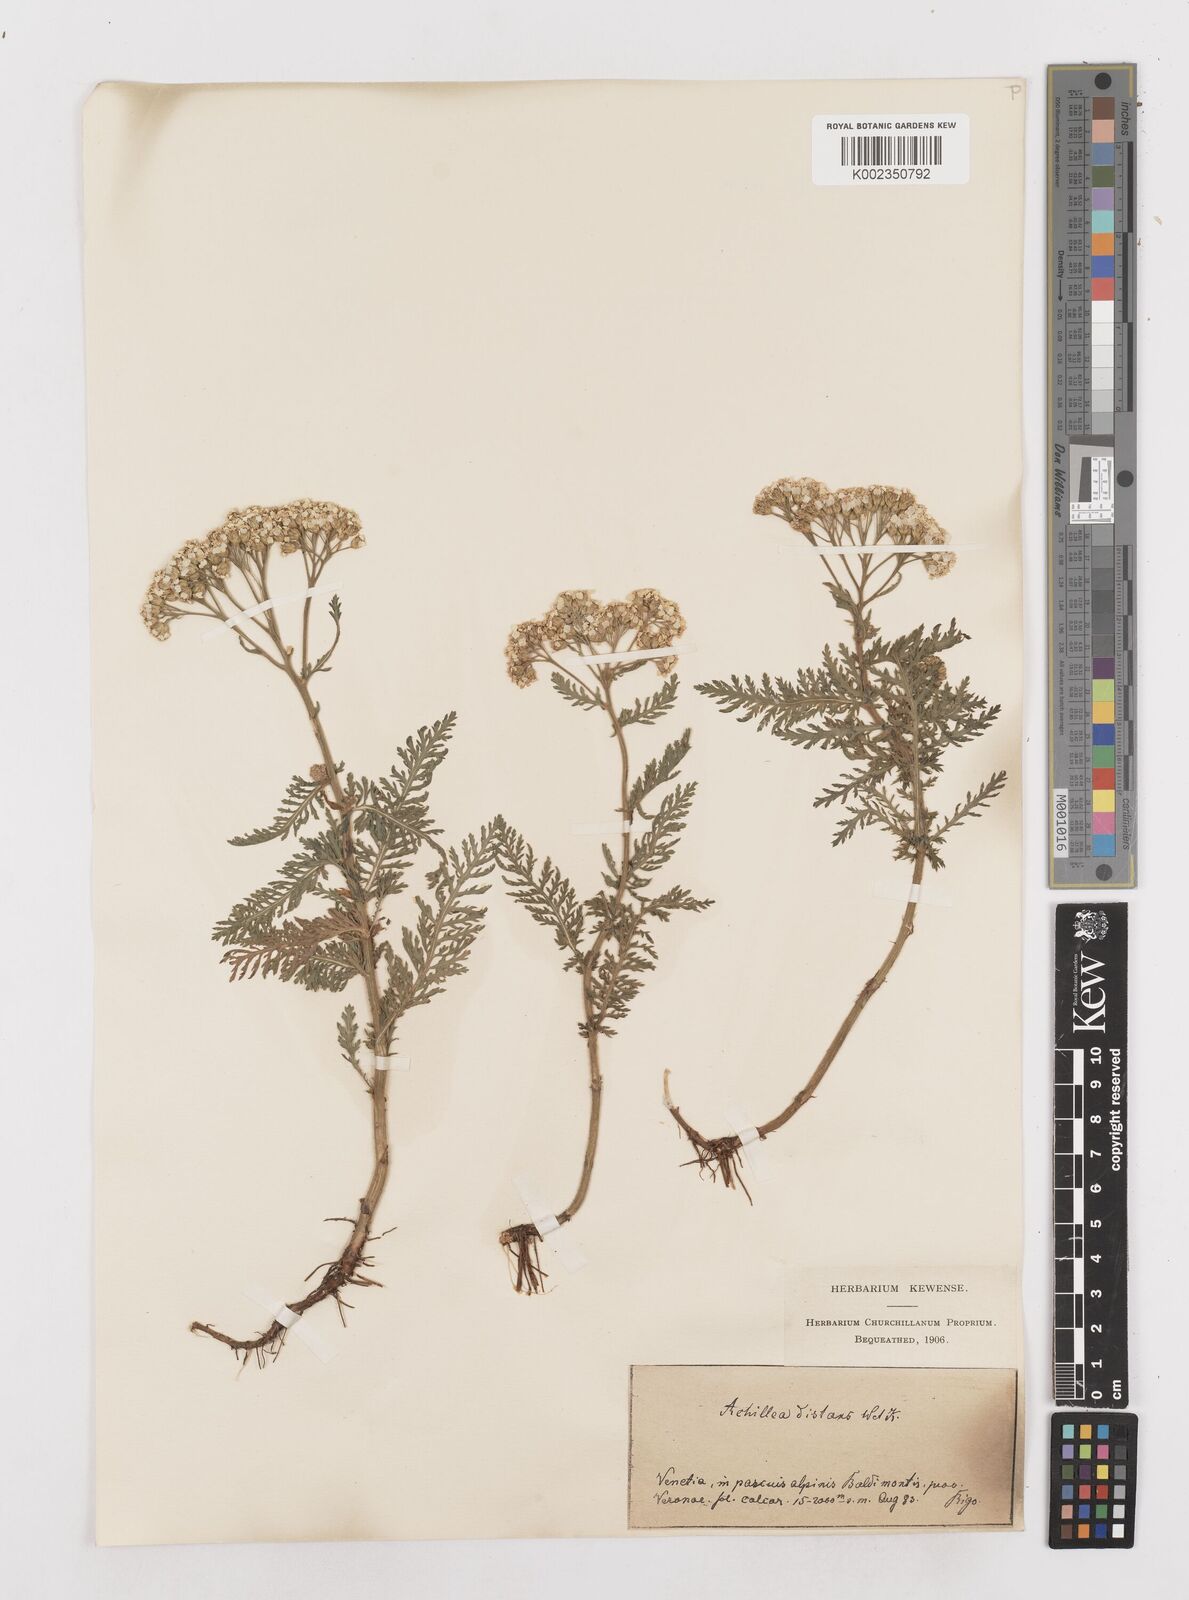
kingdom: Plantae
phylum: Tracheophyta
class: Magnoliopsida
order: Asterales
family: Asteraceae
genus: Achillea
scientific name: Achillea distans
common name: Tall yarrow
